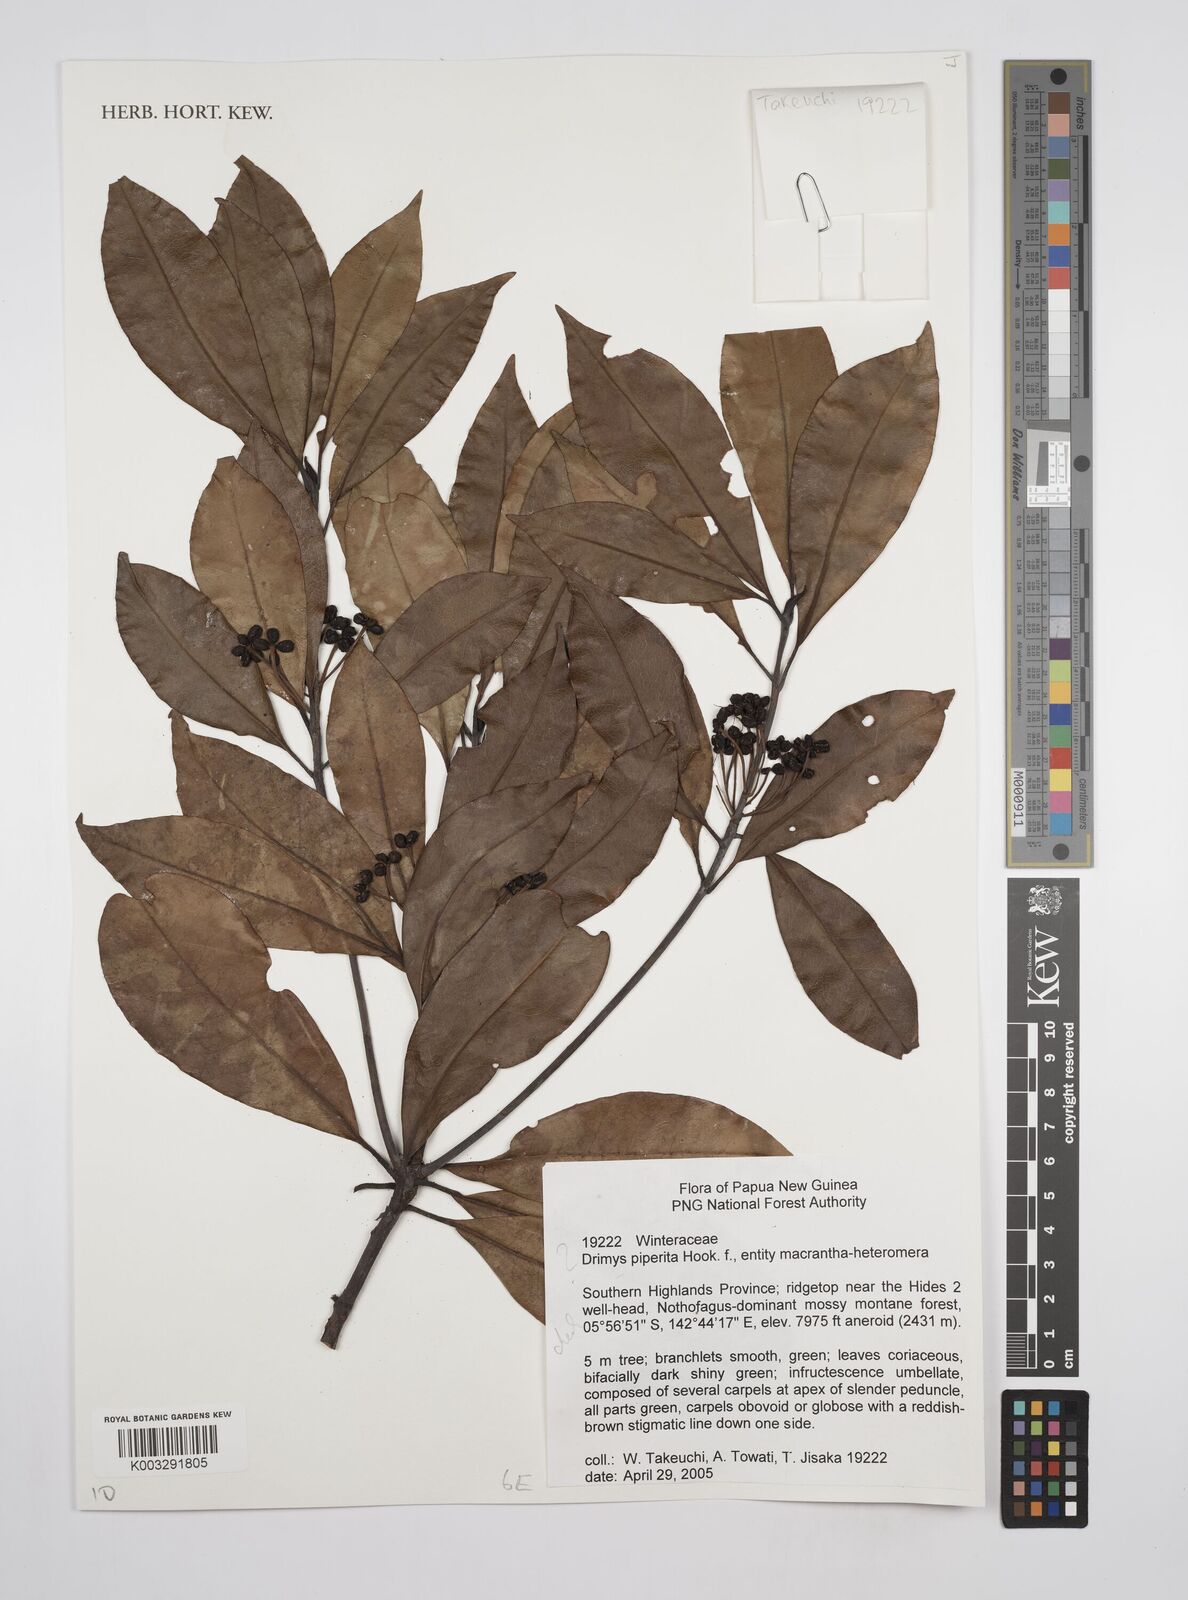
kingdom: Plantae
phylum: Tracheophyta
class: Magnoliopsida
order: Canellales
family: Winteraceae
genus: Drimys
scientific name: Drimys piperita
